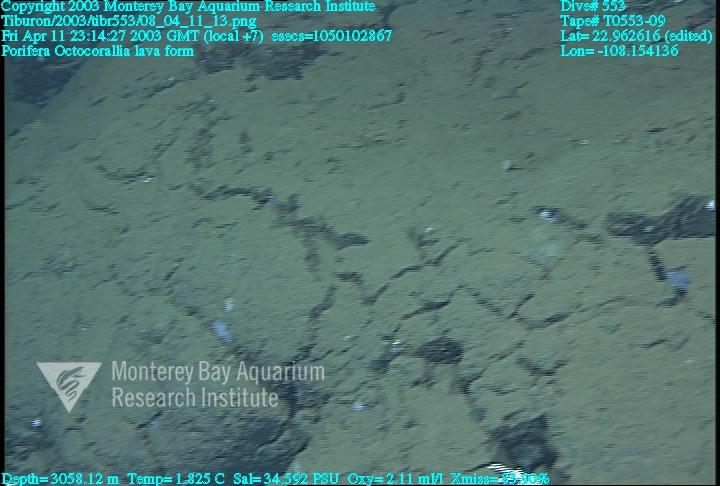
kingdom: Animalia
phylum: Porifera
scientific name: Porifera
